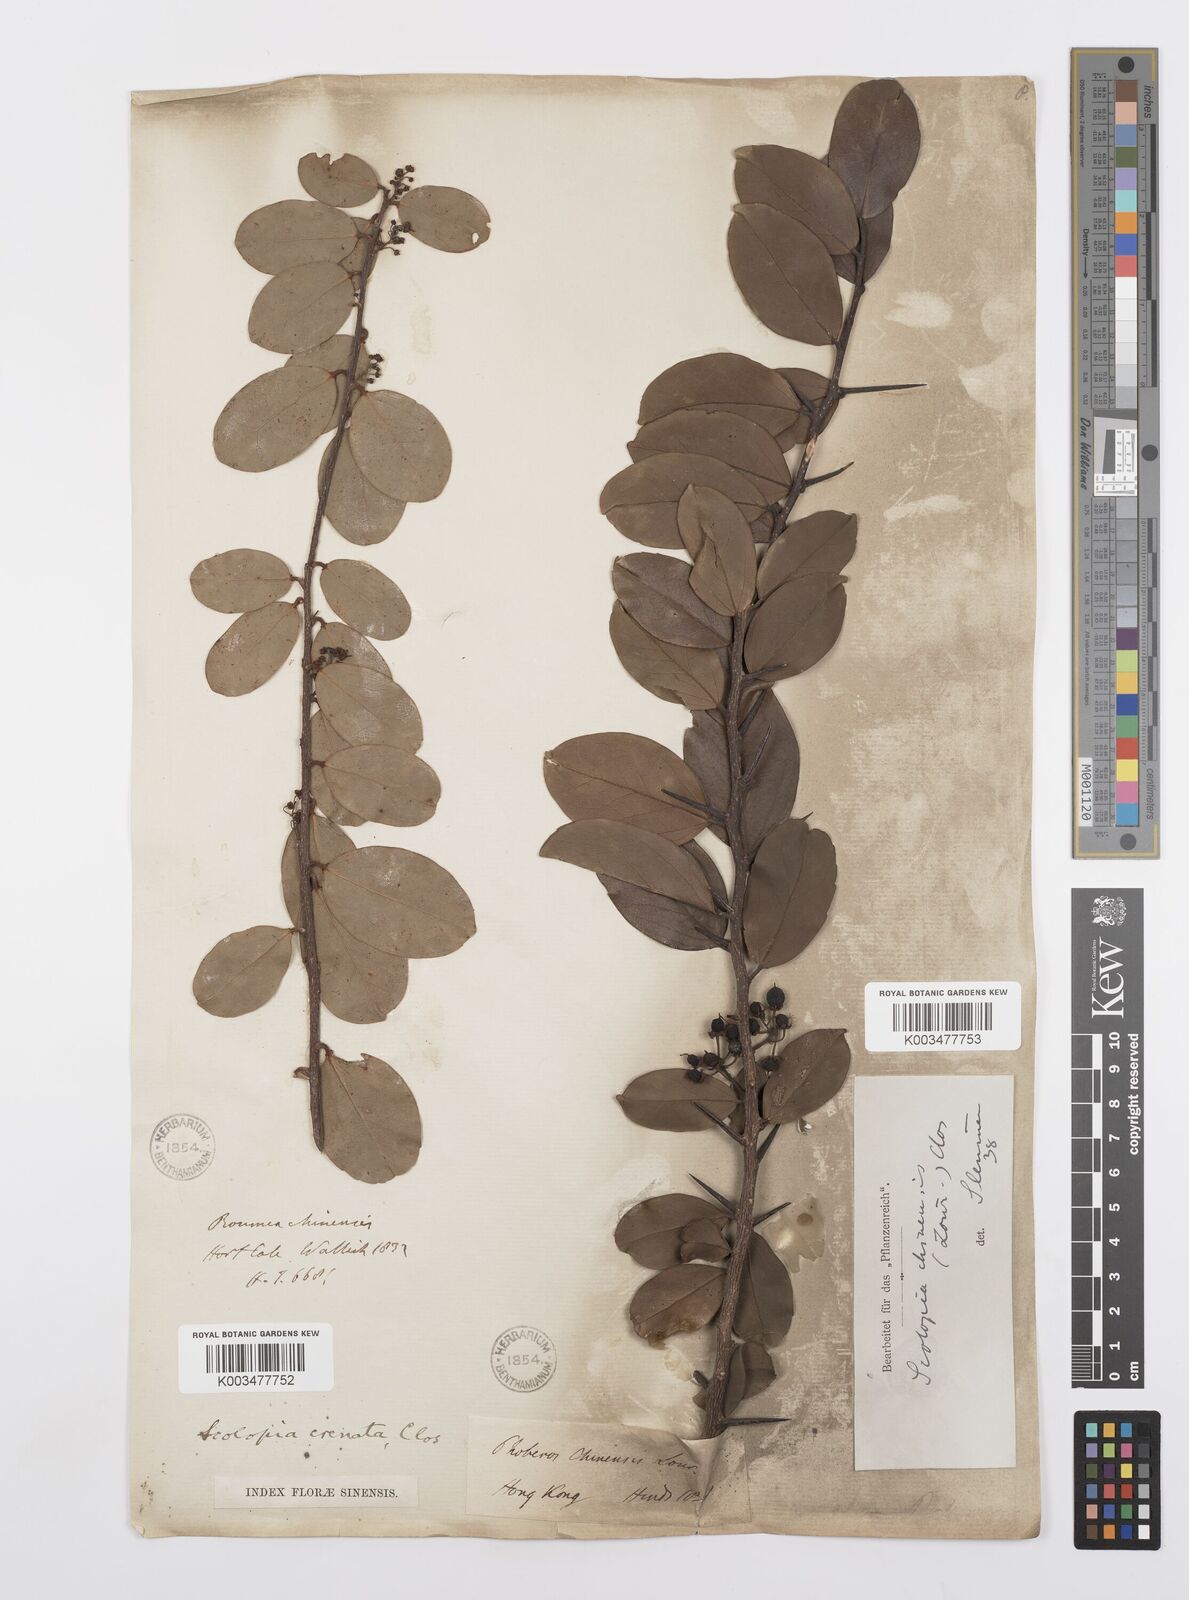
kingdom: Plantae
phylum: Tracheophyta
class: Magnoliopsida
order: Malpighiales
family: Salicaceae
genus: Scolopia
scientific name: Scolopia chinensis
